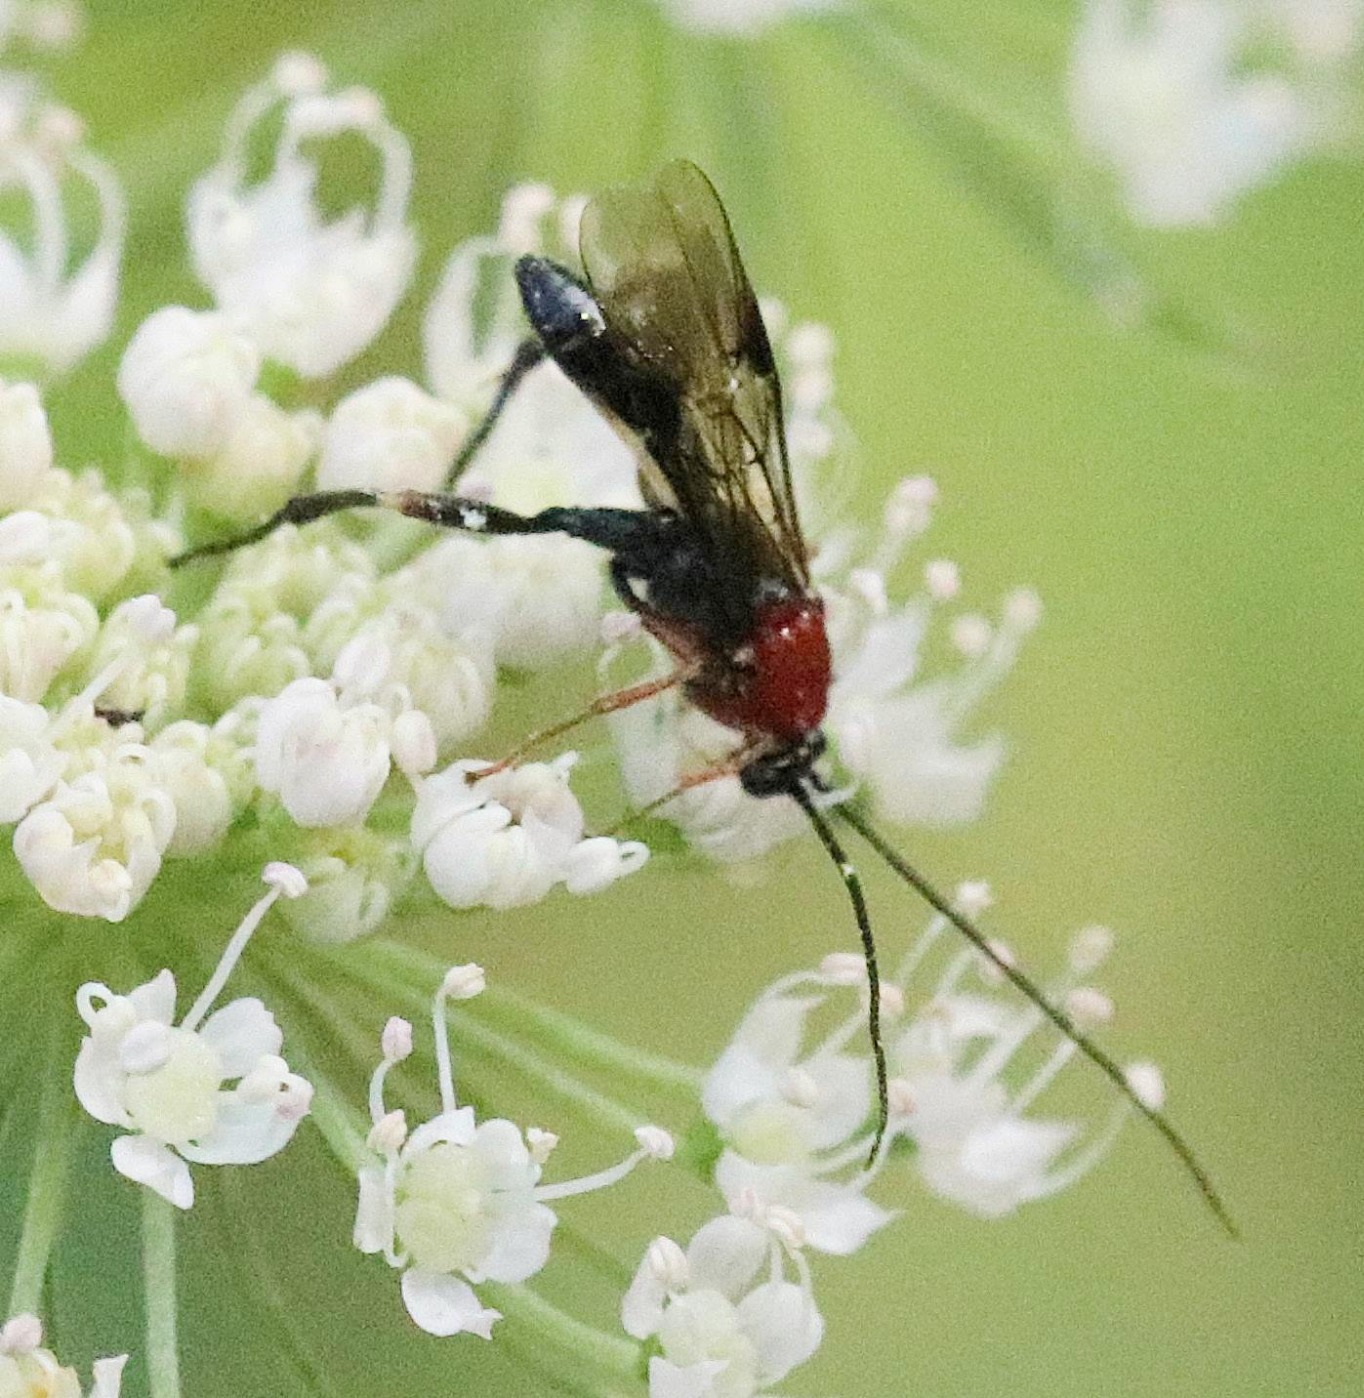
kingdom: Animalia
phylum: Arthropoda
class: Insecta
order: Hymenoptera
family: Braconidae
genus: Bassus
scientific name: Bassus calculator
